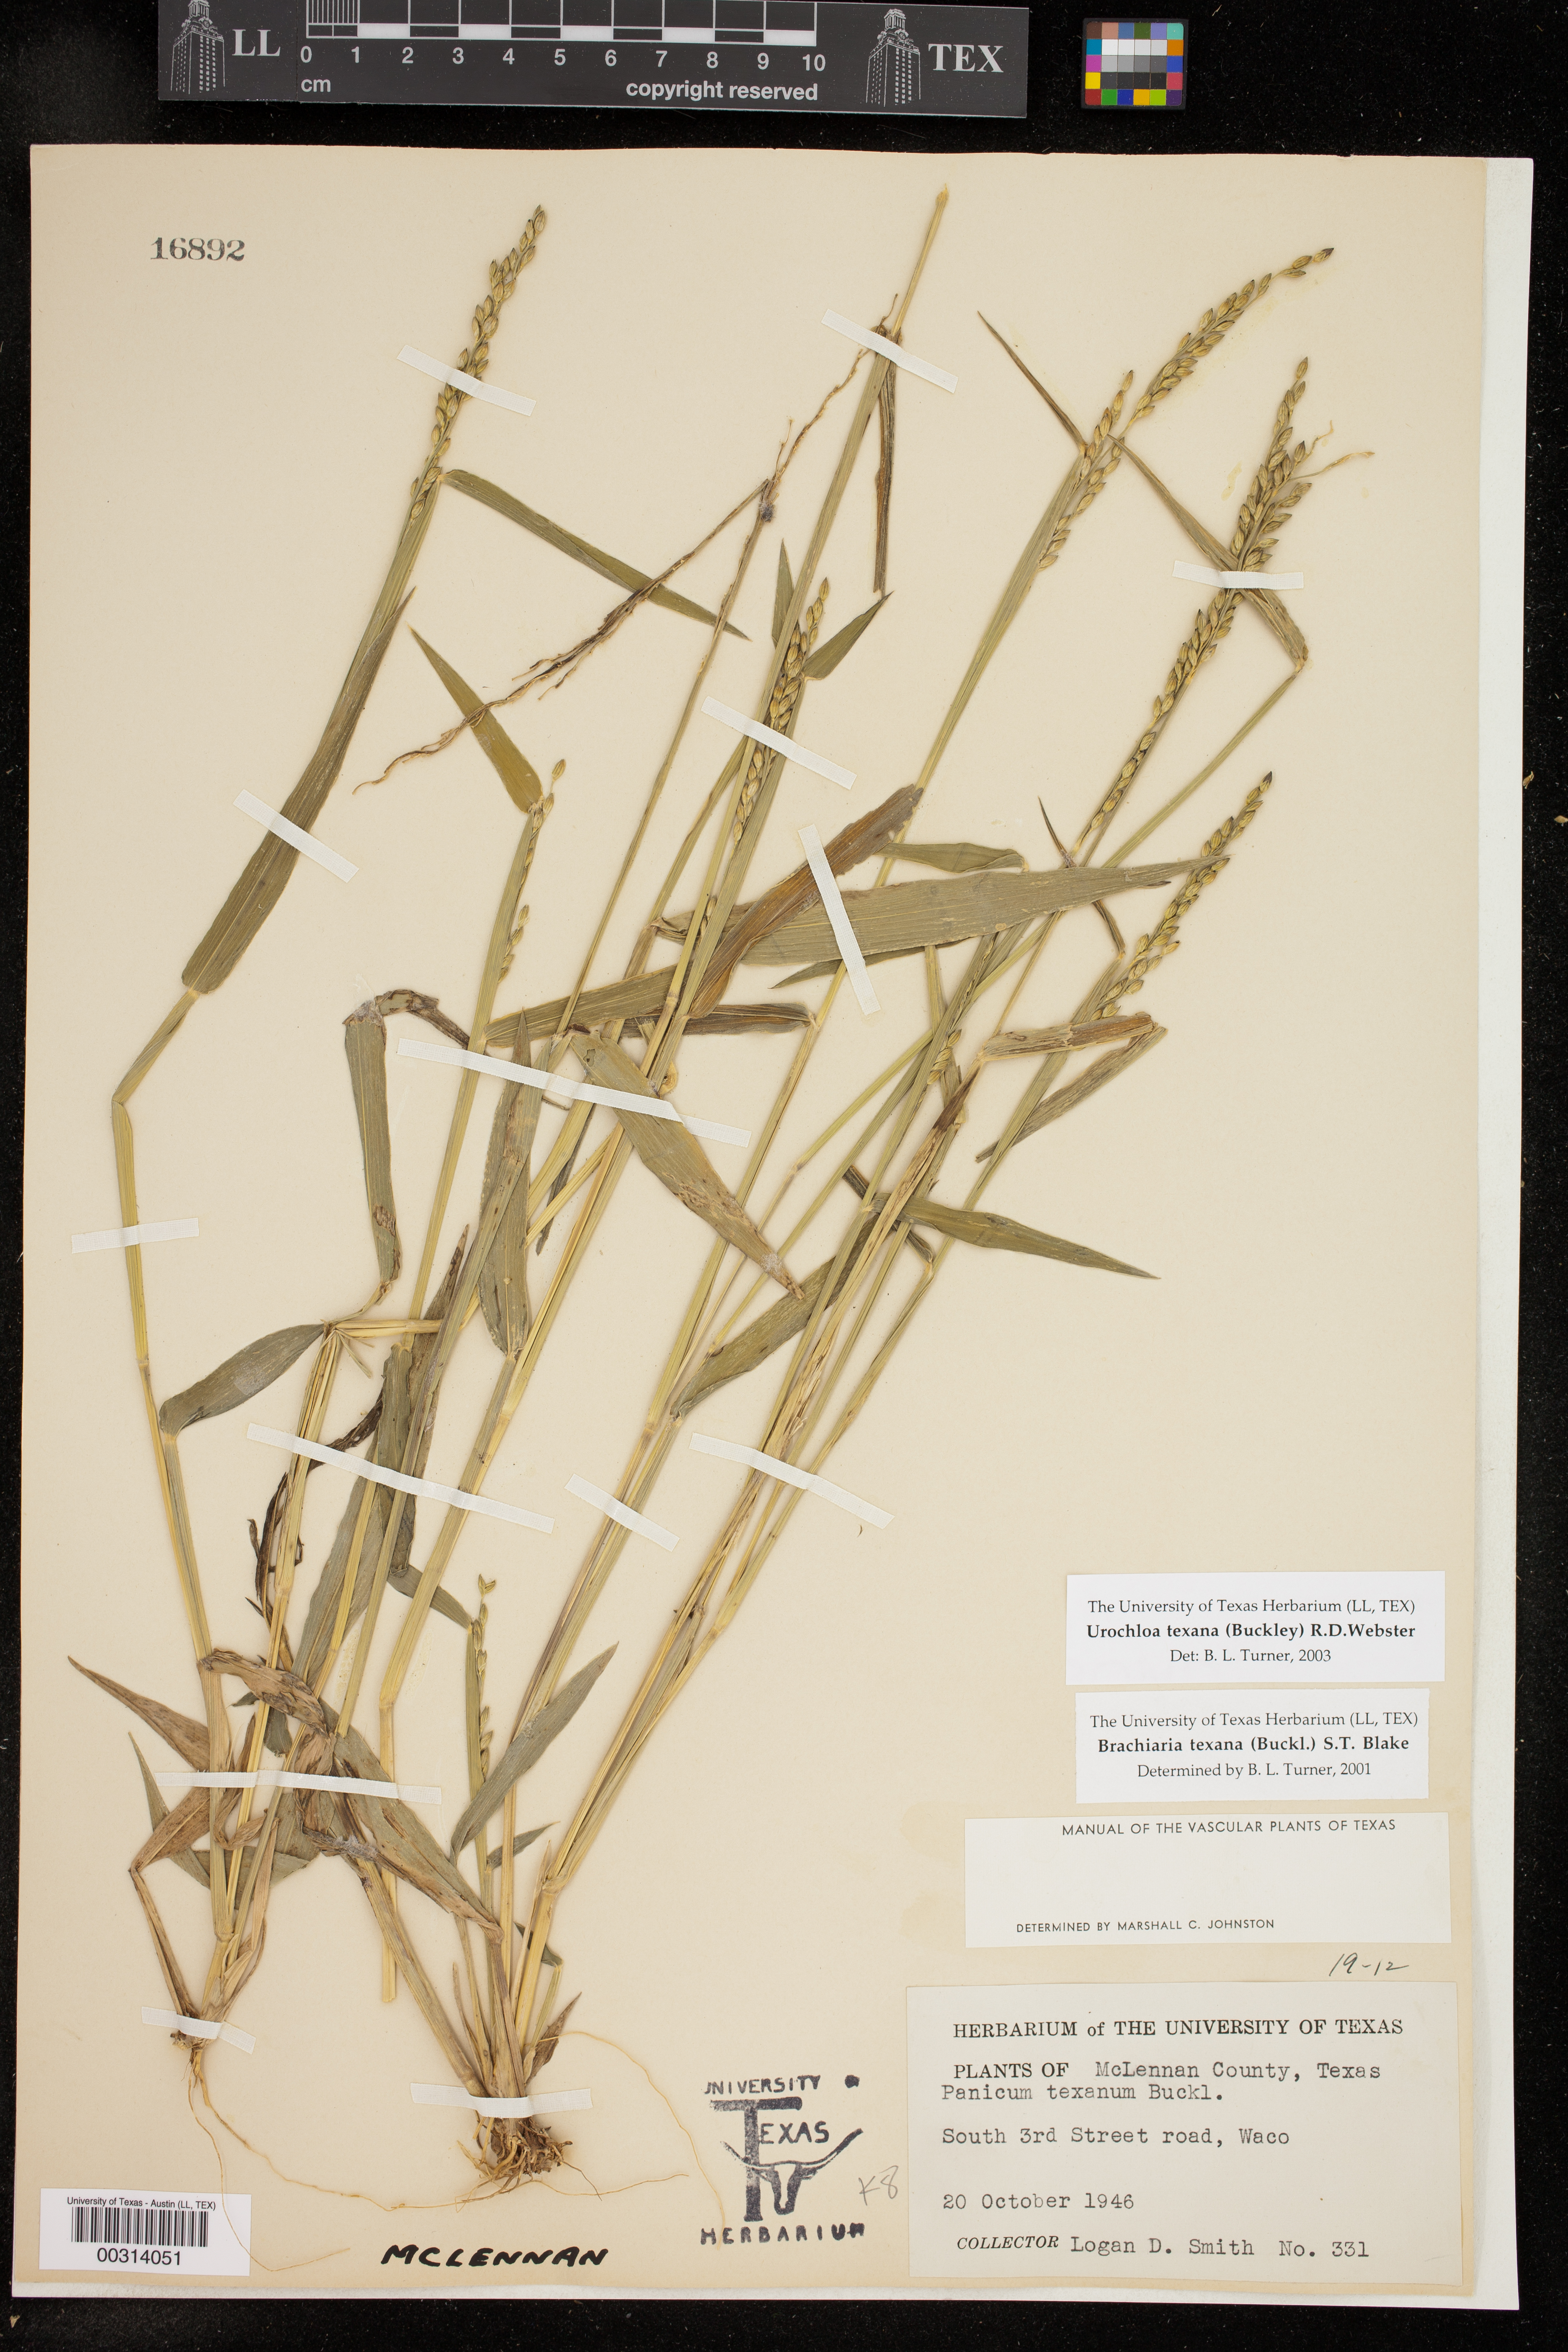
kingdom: Plantae
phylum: Tracheophyta
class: Liliopsida
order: Poales
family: Poaceae
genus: Urochloa
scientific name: Urochloa texana
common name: Texas millet
